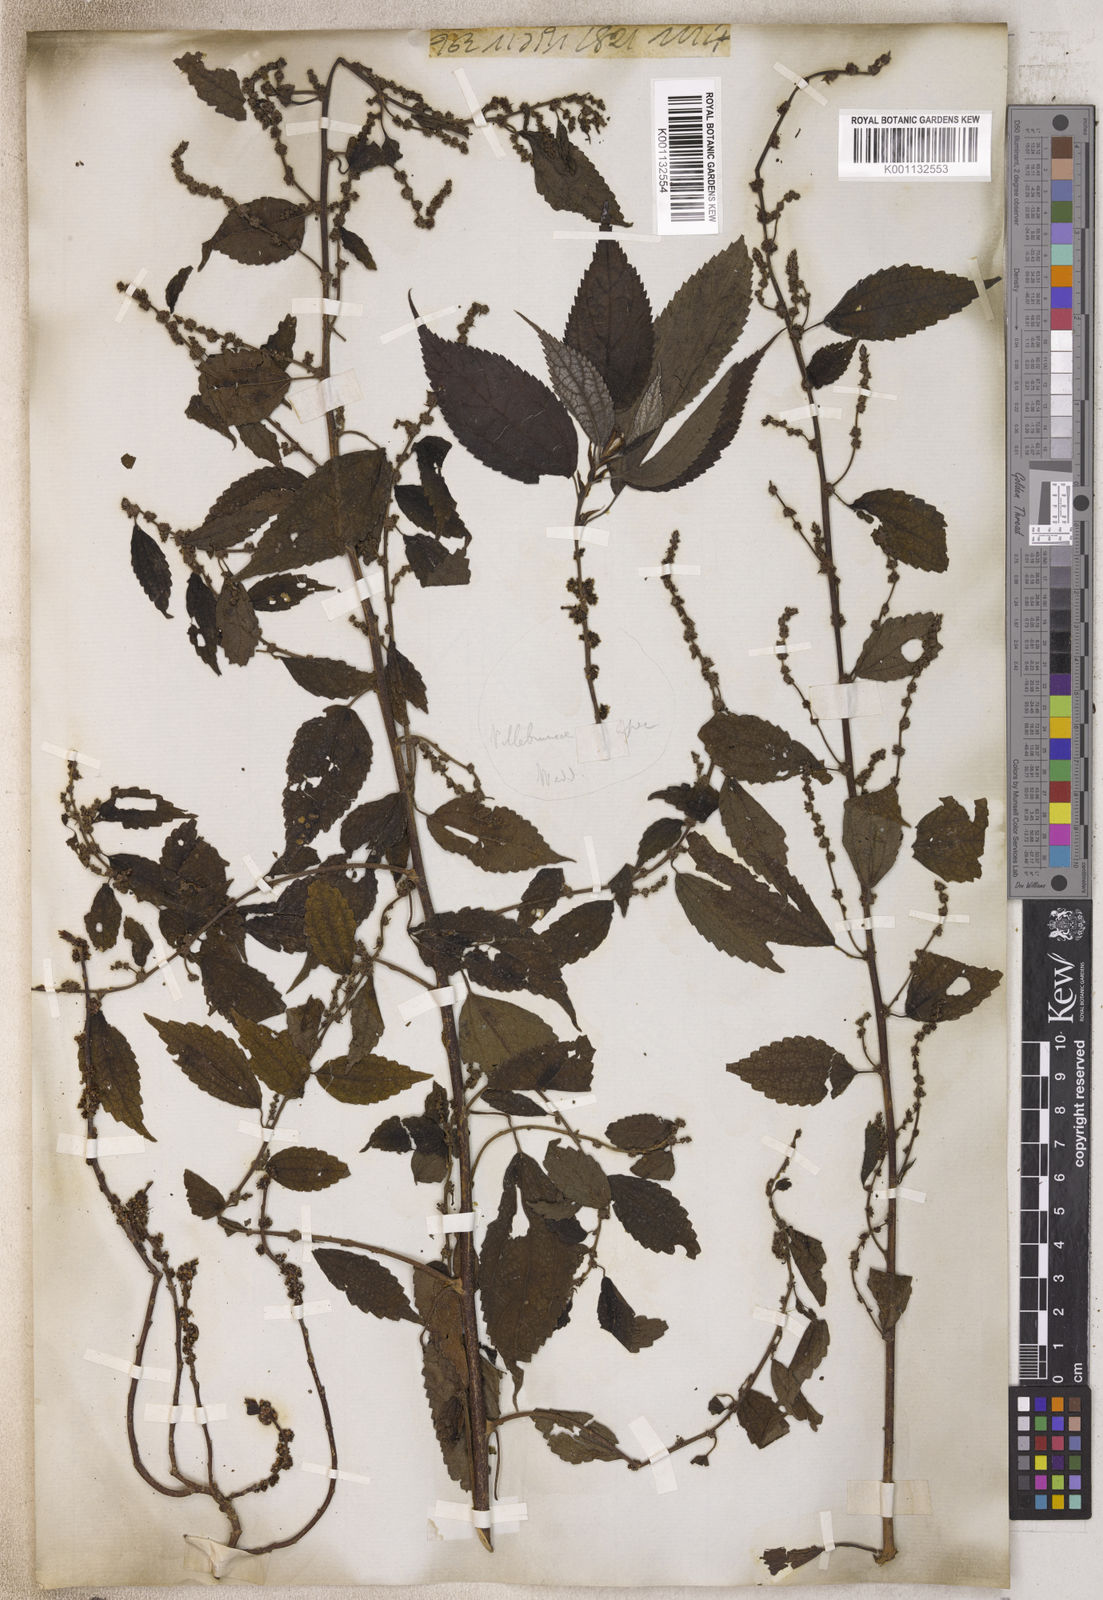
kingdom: Plantae
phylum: Tracheophyta
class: Magnoliopsida
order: Rosales
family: Urticaceae
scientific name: Urticaceae
